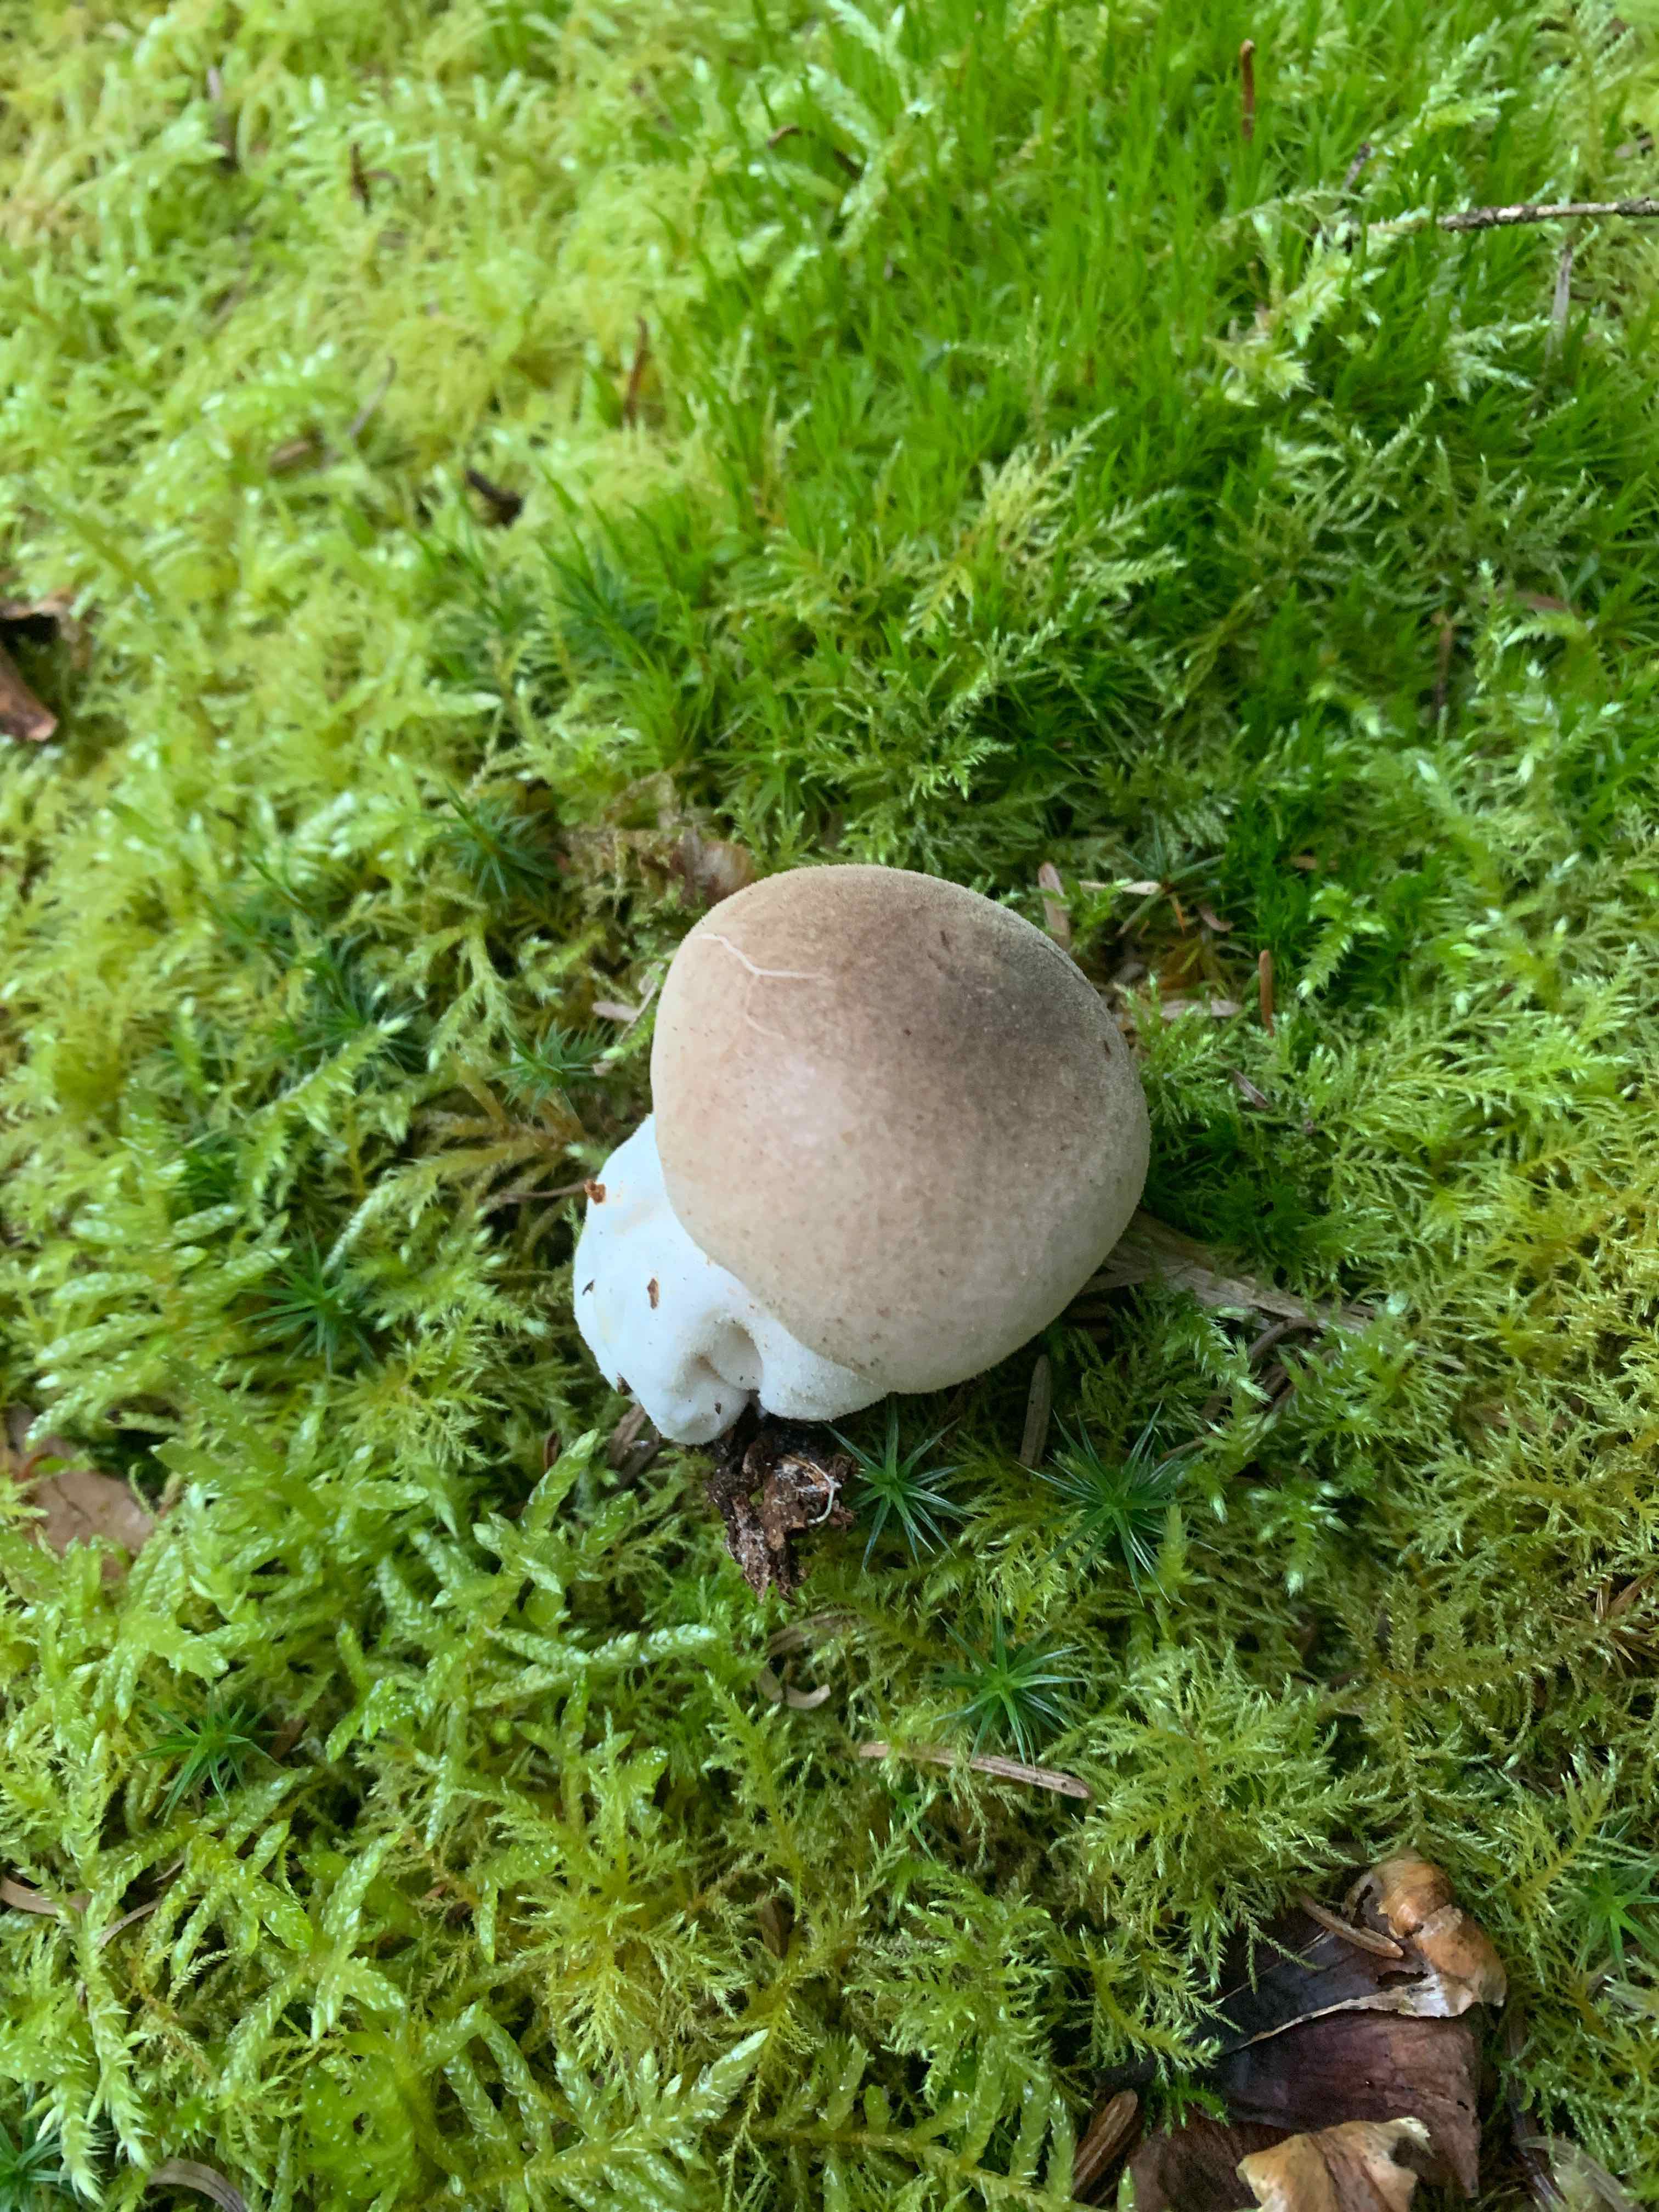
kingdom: Fungi
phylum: Basidiomycota
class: Agaricomycetes
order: Agaricales
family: Lycoperdaceae
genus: Lycoperdon
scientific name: Lycoperdon molle
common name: skov-støvbold
